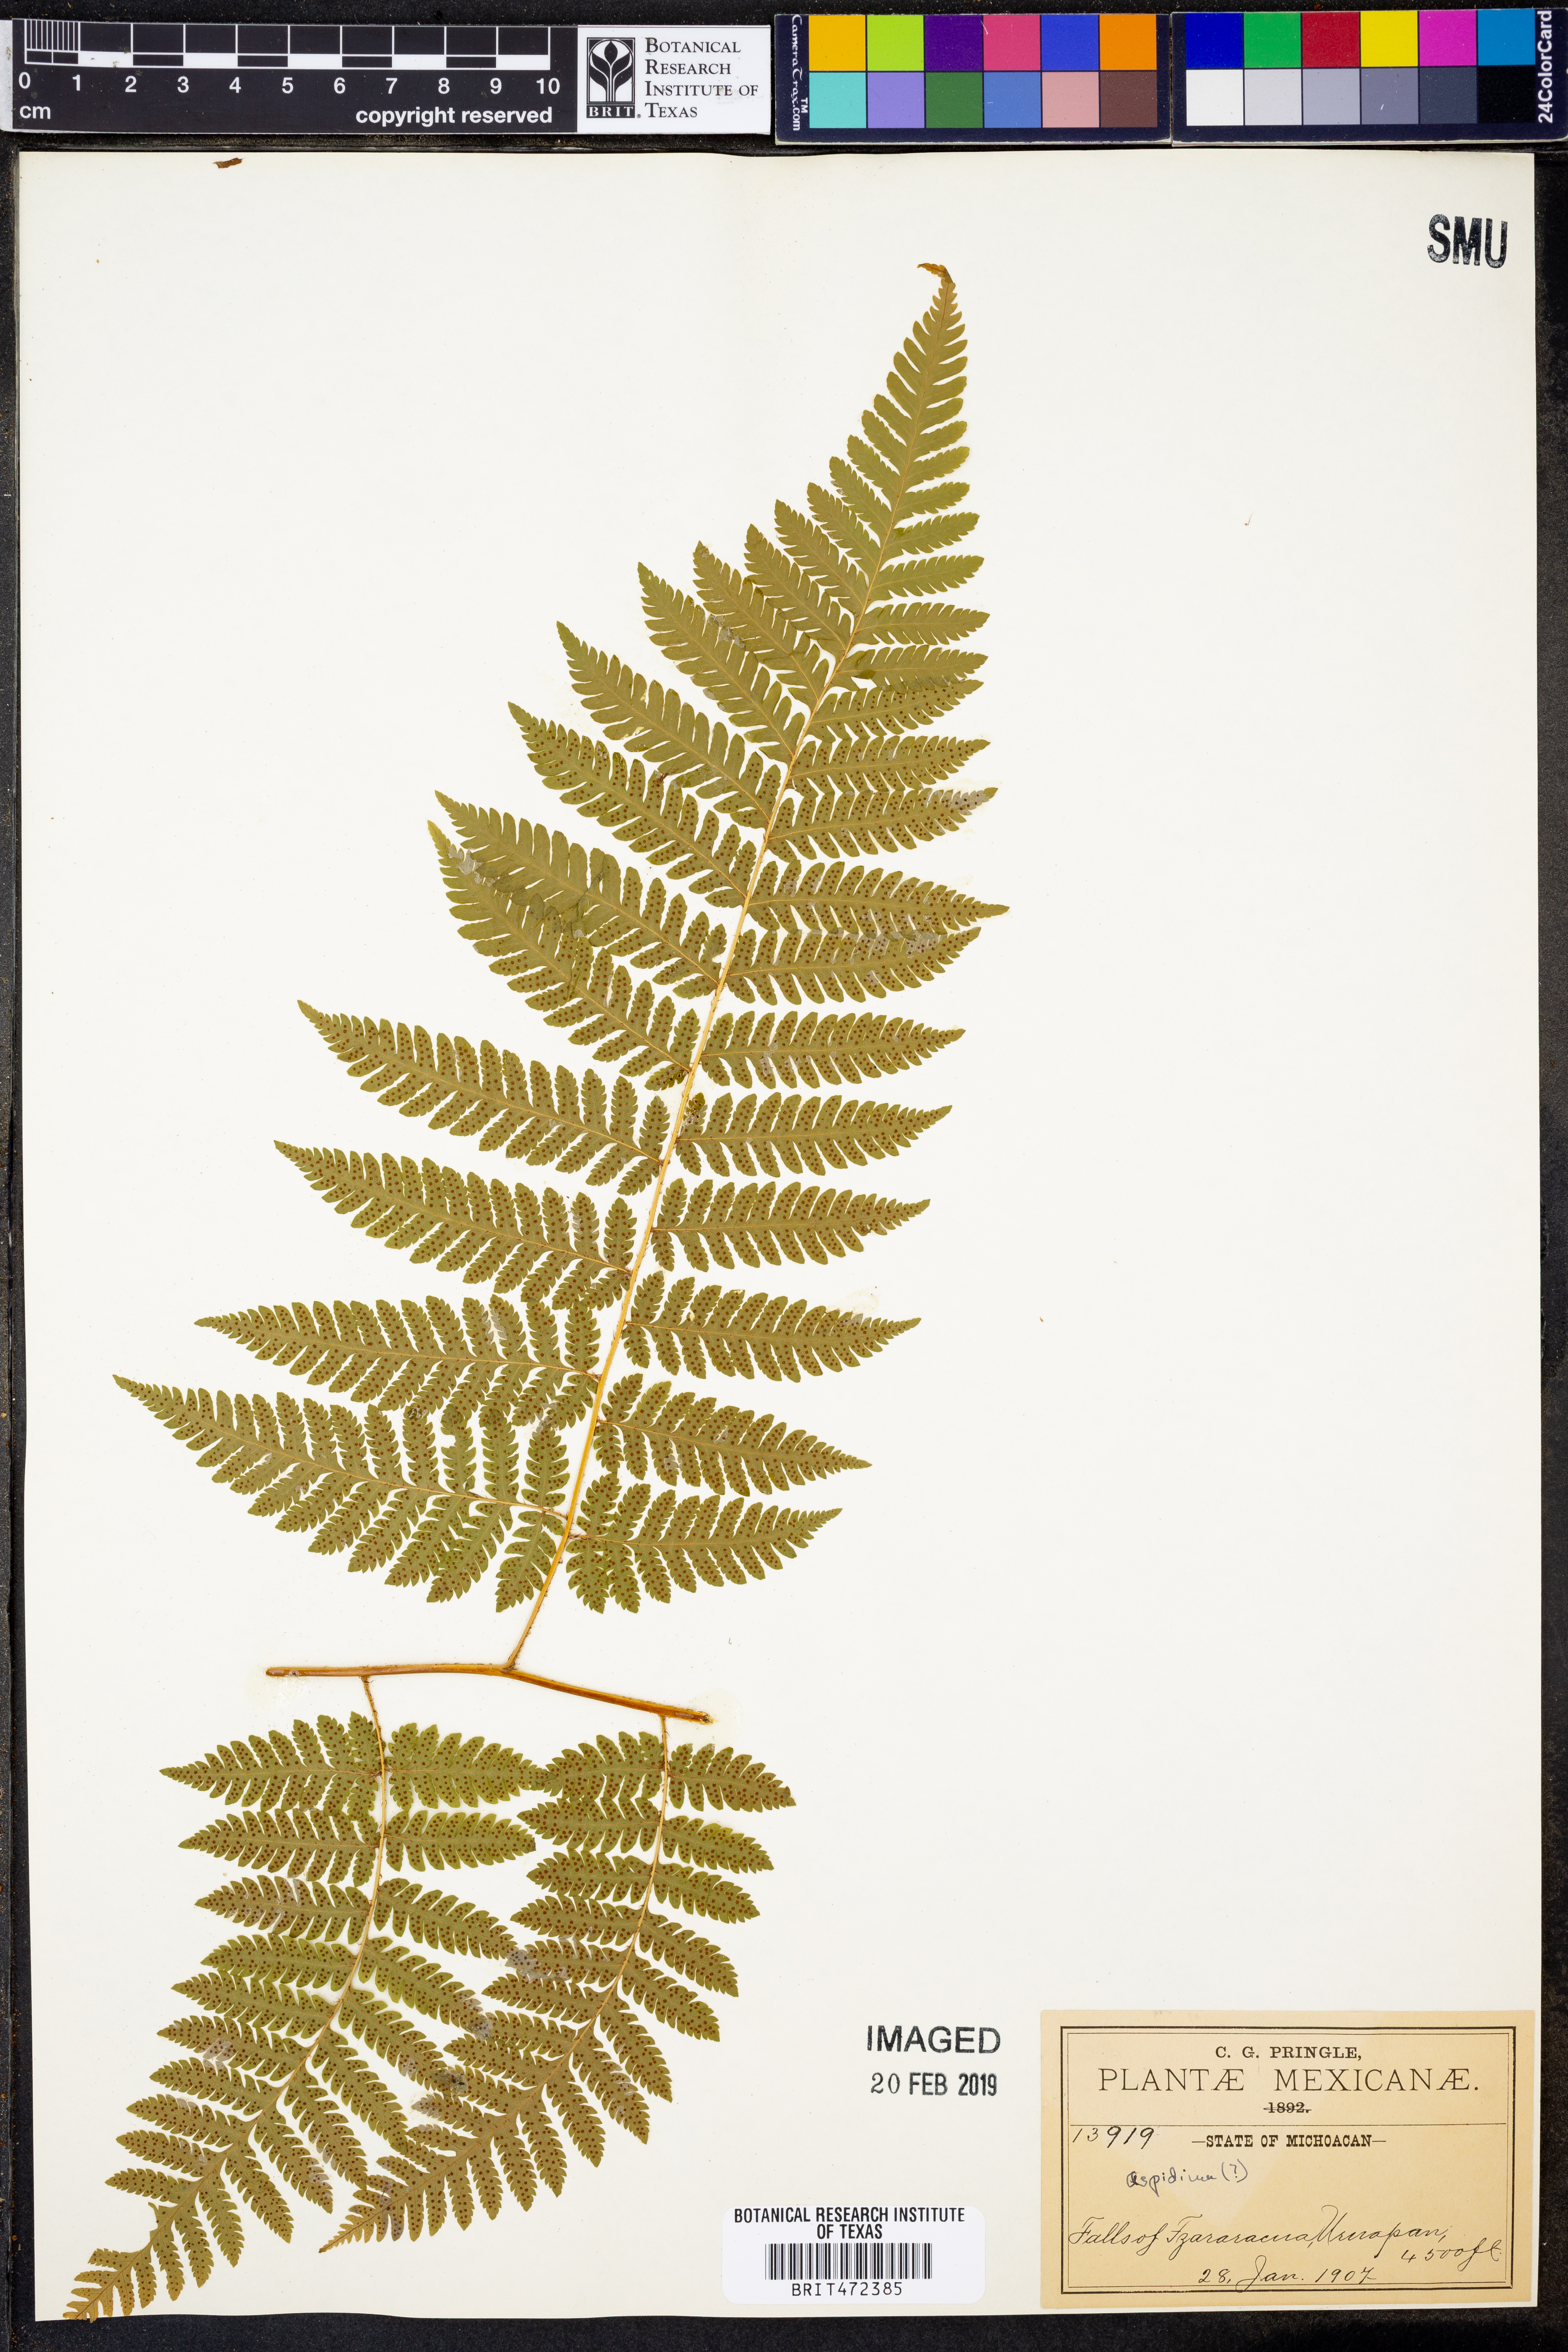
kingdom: Plantae
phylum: Tracheophyta
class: Polypodiopsida
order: Polypodiales
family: Dryopteridaceae
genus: Ctenitis
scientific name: Ctenitis equestris
